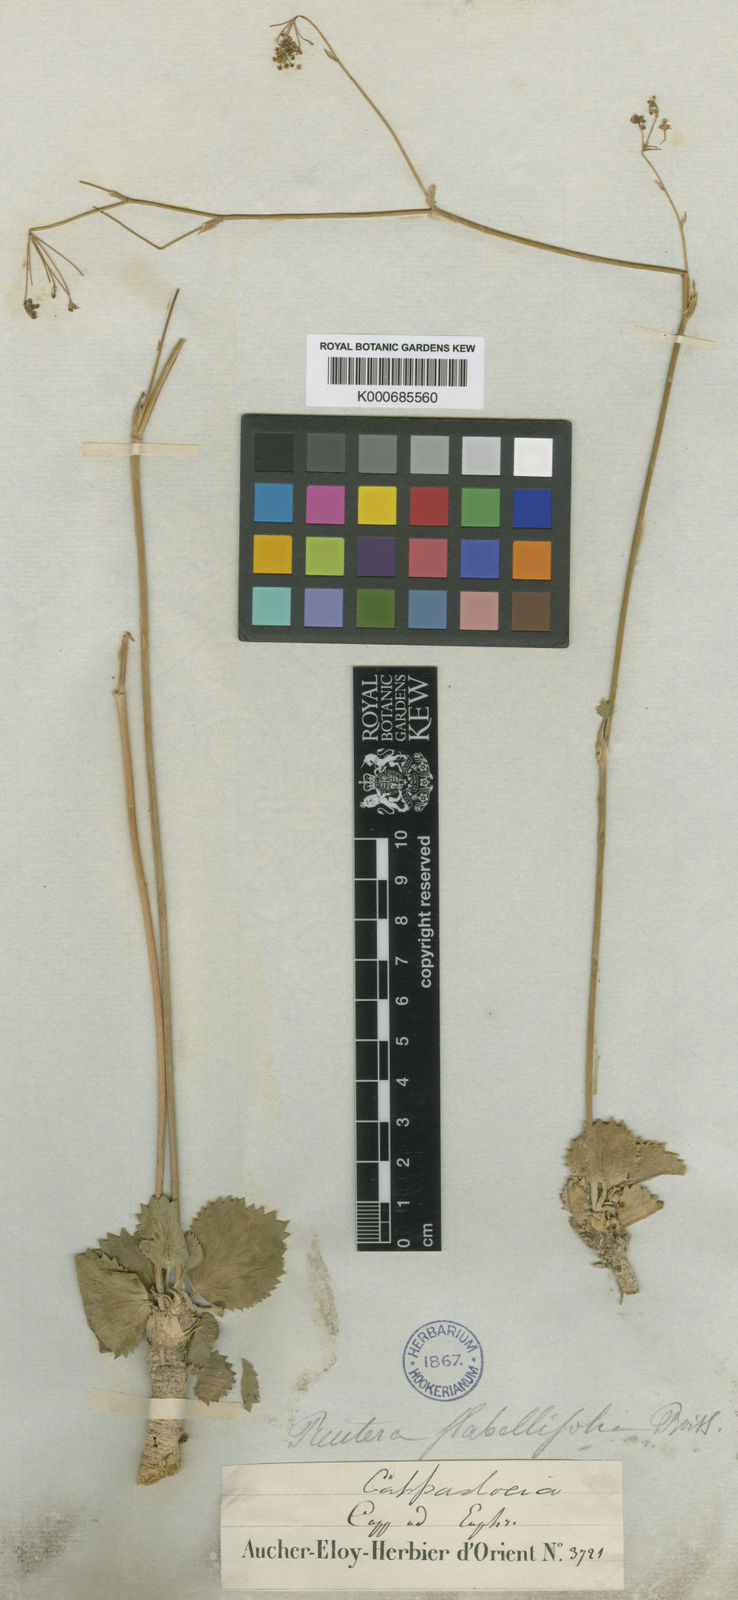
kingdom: Plantae
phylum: Tracheophyta
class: Magnoliopsida
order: Apiales
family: Apiaceae
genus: Pimpinella
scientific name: Pimpinella
